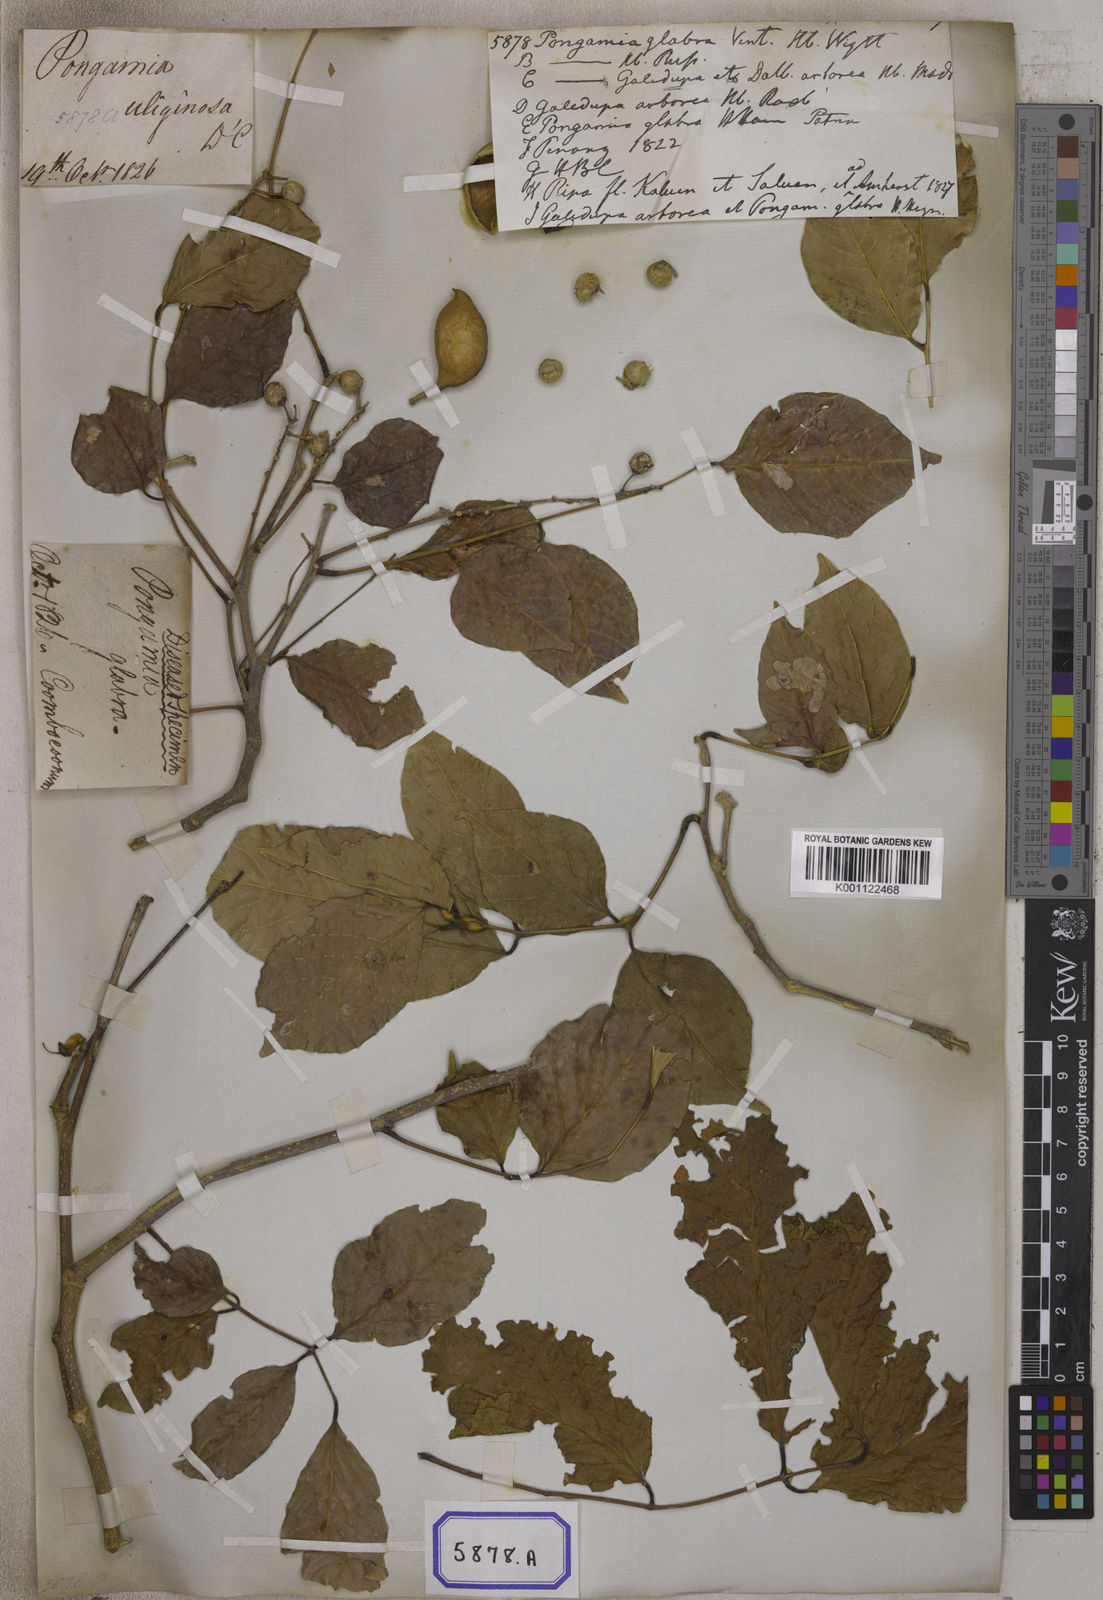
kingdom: Plantae
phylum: Tracheophyta
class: Magnoliopsida
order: Fabales
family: Fabaceae
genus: Pongamia
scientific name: Pongamia pinnata
